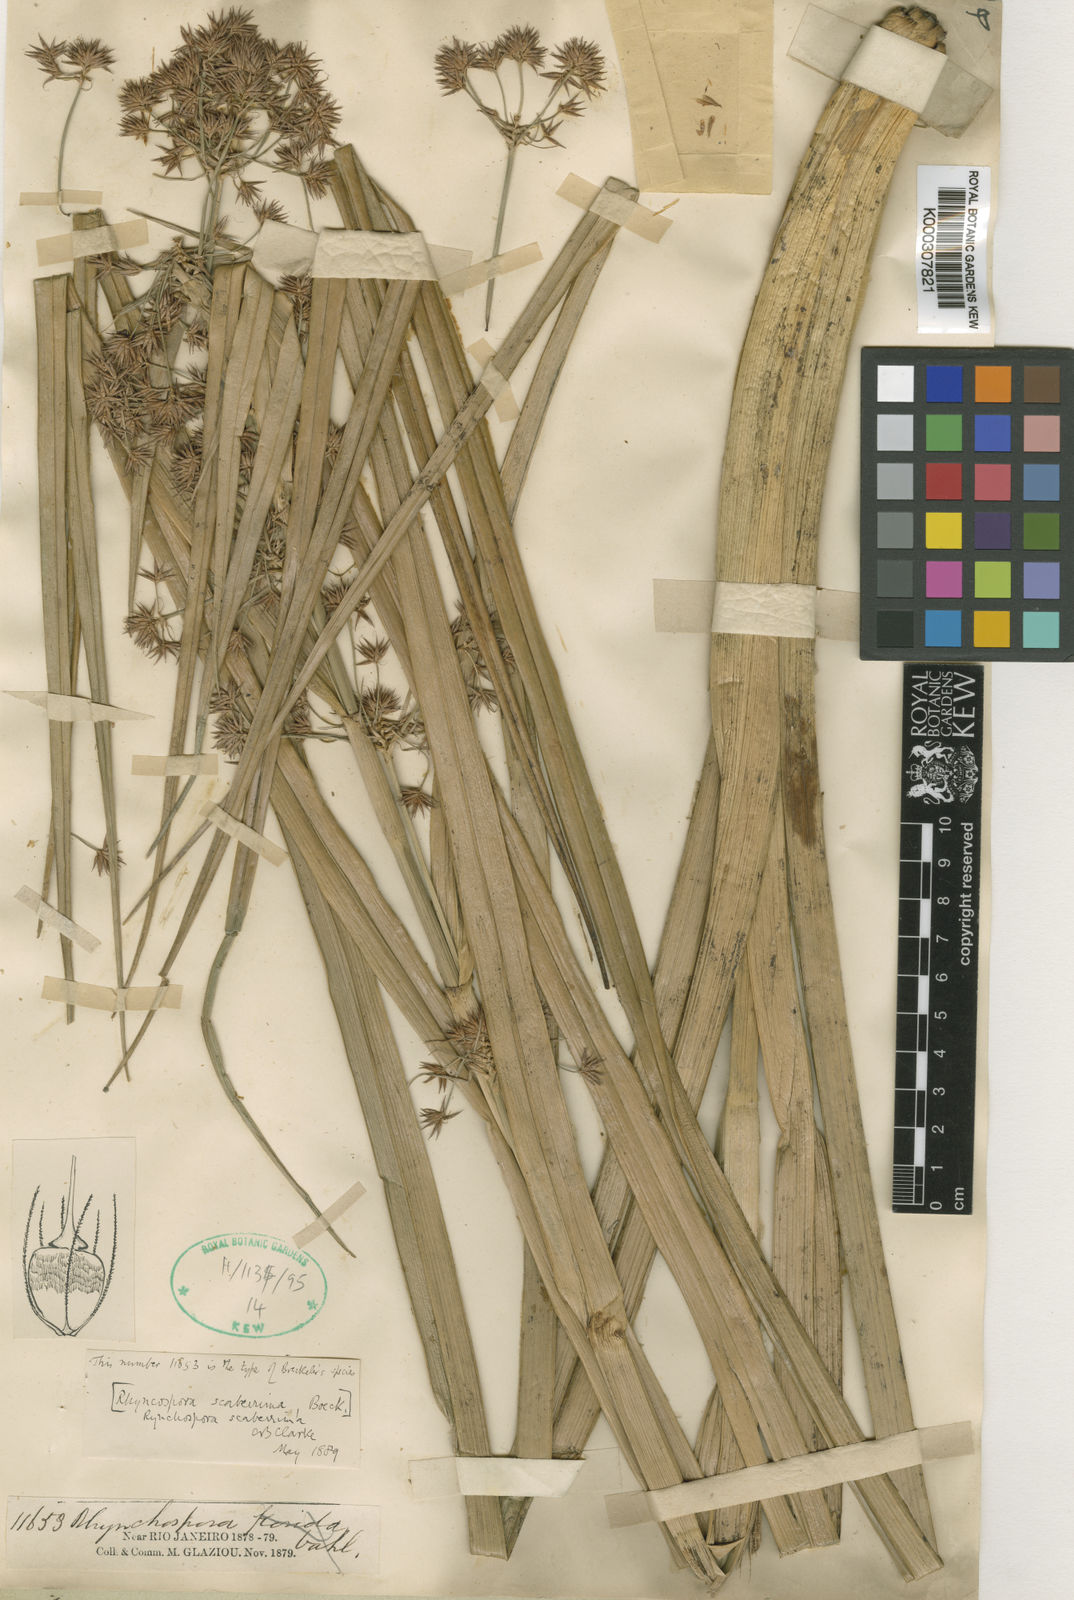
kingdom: Plantae
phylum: Tracheophyta
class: Liliopsida
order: Poales
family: Cyperaceae
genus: Rhynchospora
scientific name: Rhynchospora gigantea
